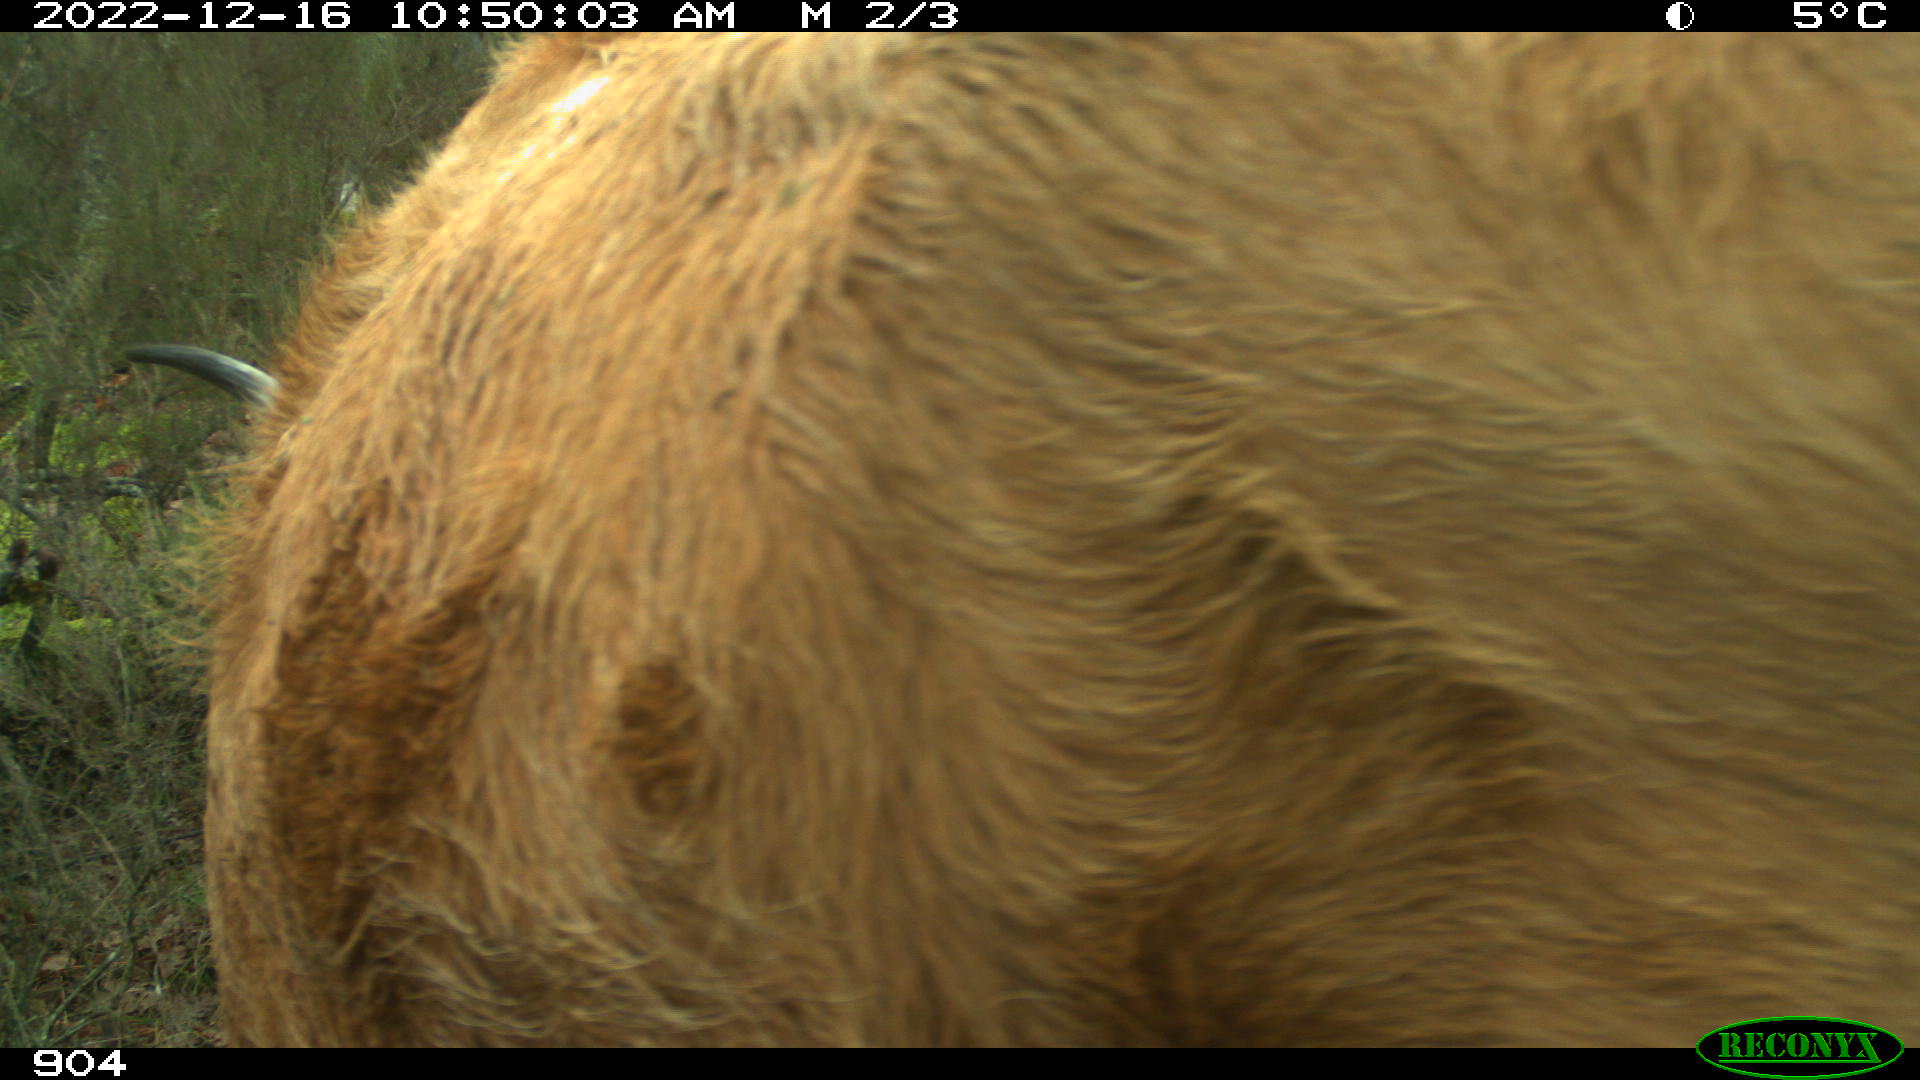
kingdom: Animalia
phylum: Chordata
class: Mammalia
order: Artiodactyla
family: Bovidae
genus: Bos
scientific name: Bos taurus
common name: Domesticated cattle
